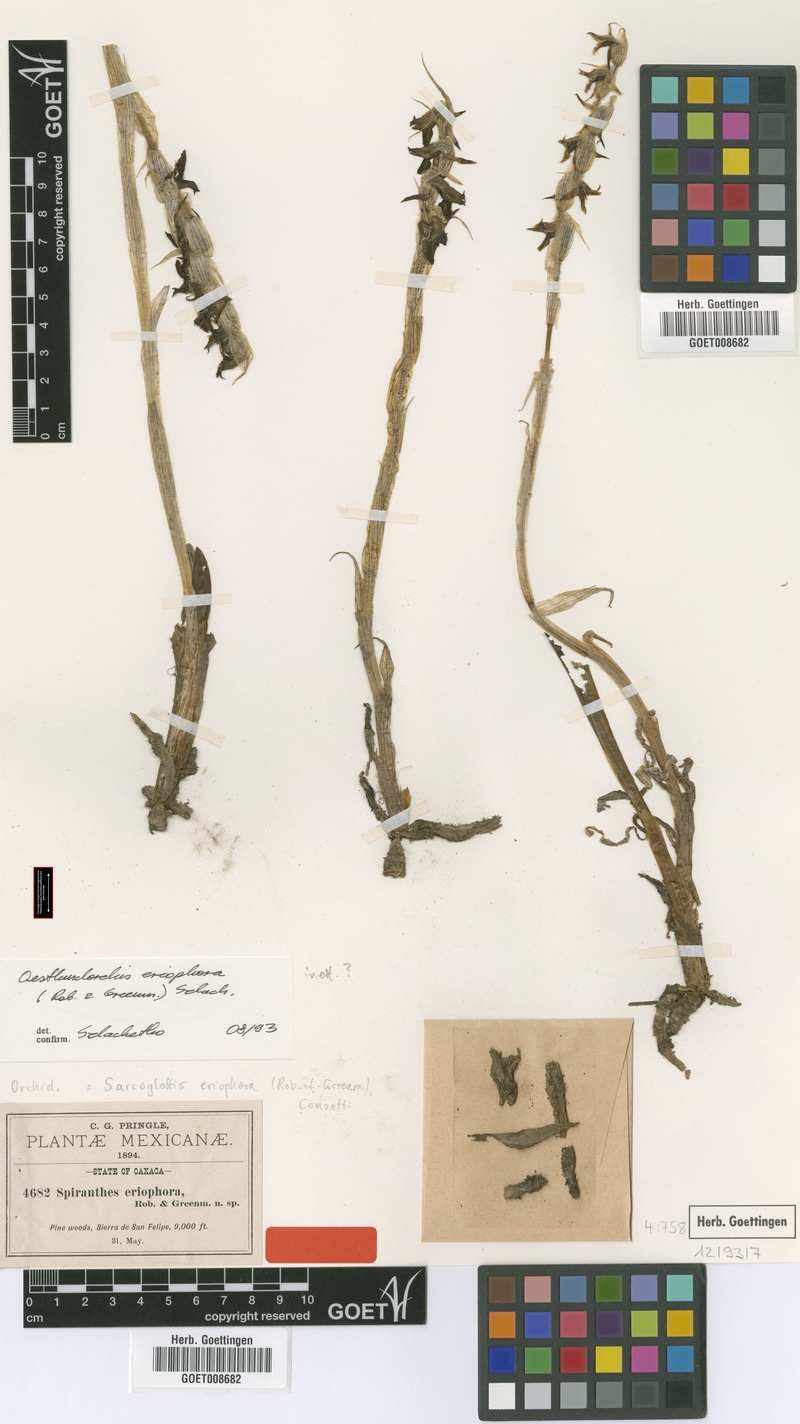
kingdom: Plantae
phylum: Tracheophyta
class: Liliopsida
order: Asparagales
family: Orchidaceae
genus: Deiregyne
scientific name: Deiregyne eriophora
